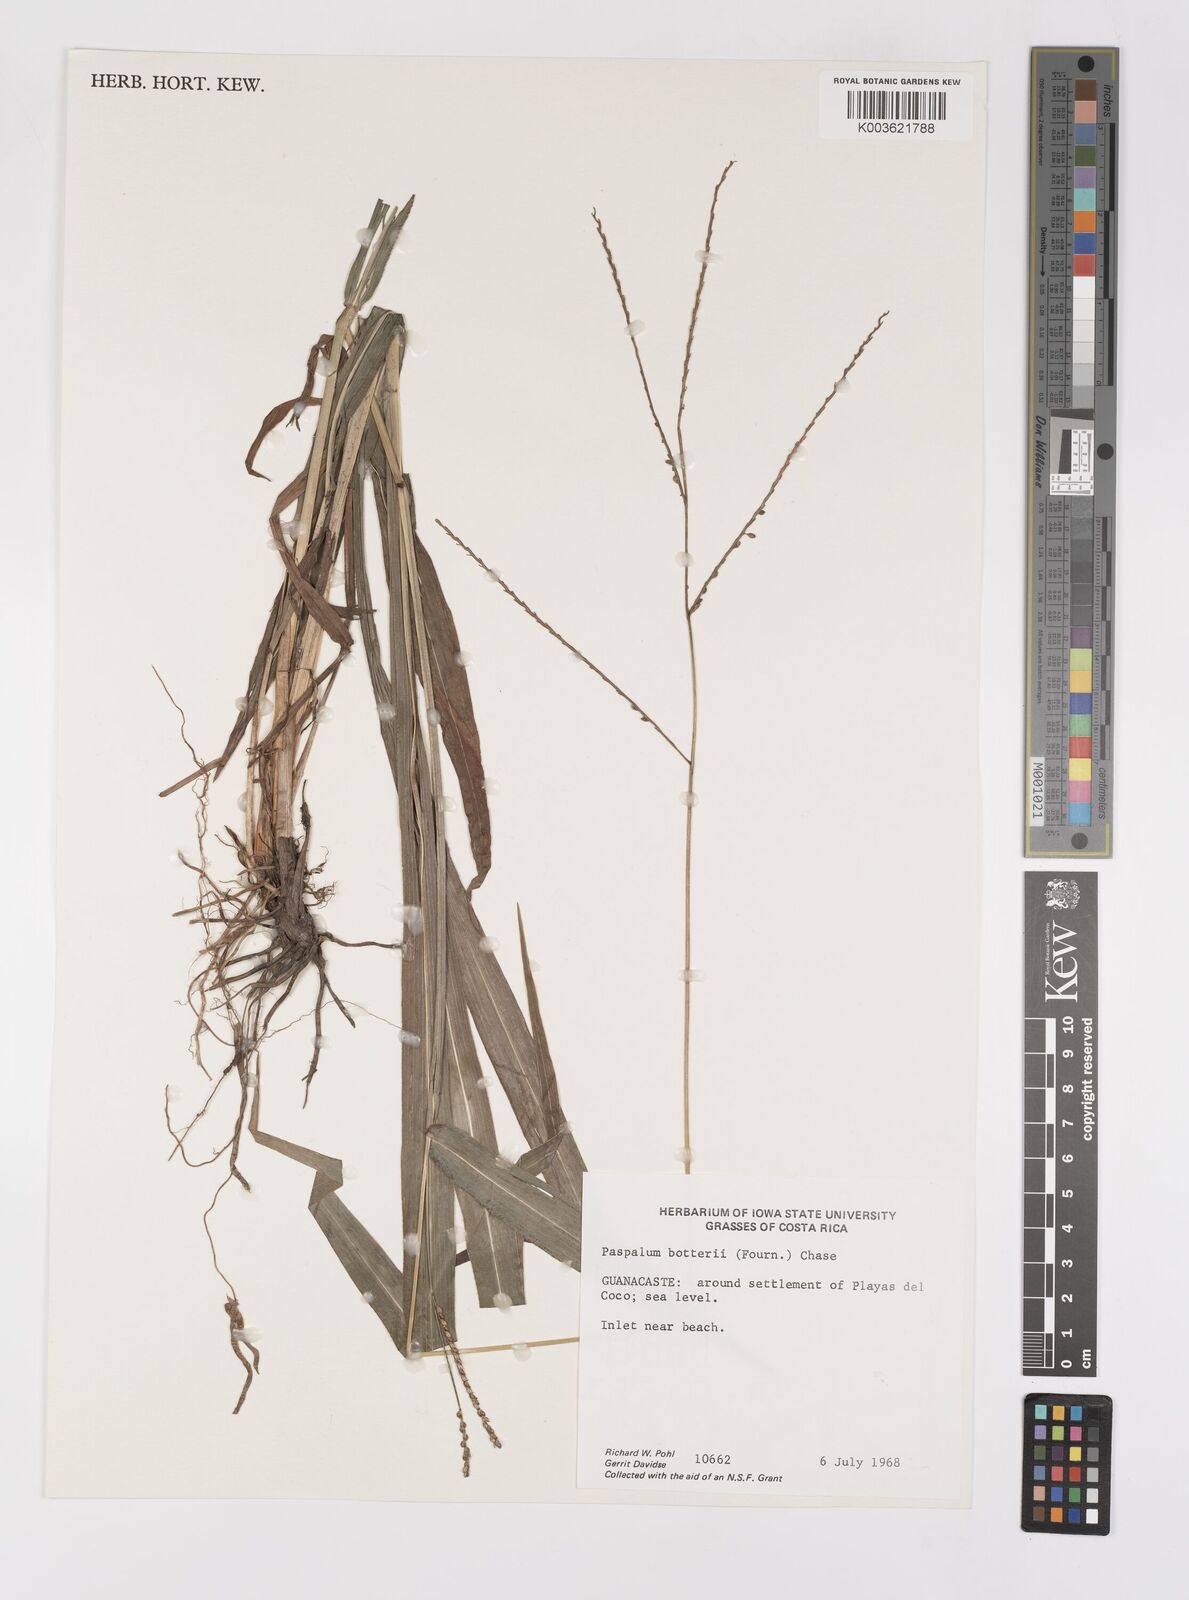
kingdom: Plantae
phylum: Tracheophyta
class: Liliopsida
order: Poales
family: Poaceae
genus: Paspalum
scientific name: Paspalum botterii
